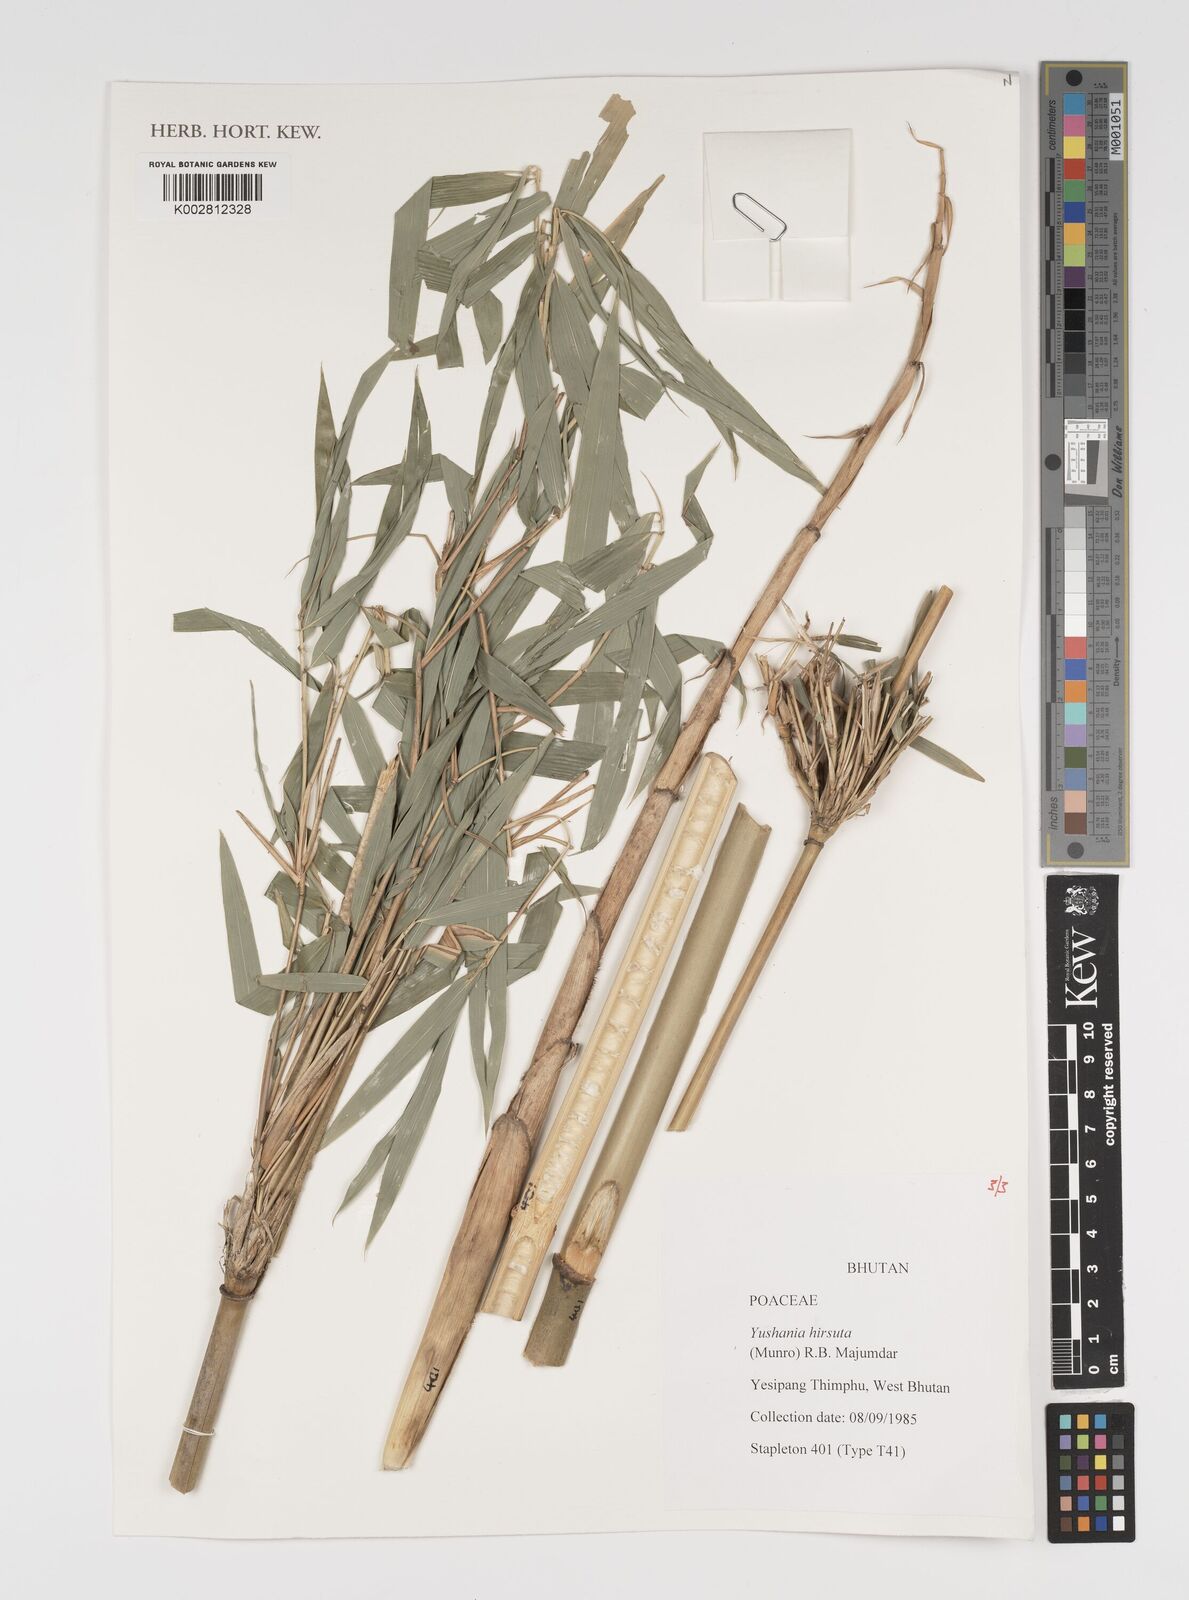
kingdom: Plantae
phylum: Tracheophyta
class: Liliopsida
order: Poales
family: Poaceae
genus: Yushania
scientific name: Yushania hirsuta
